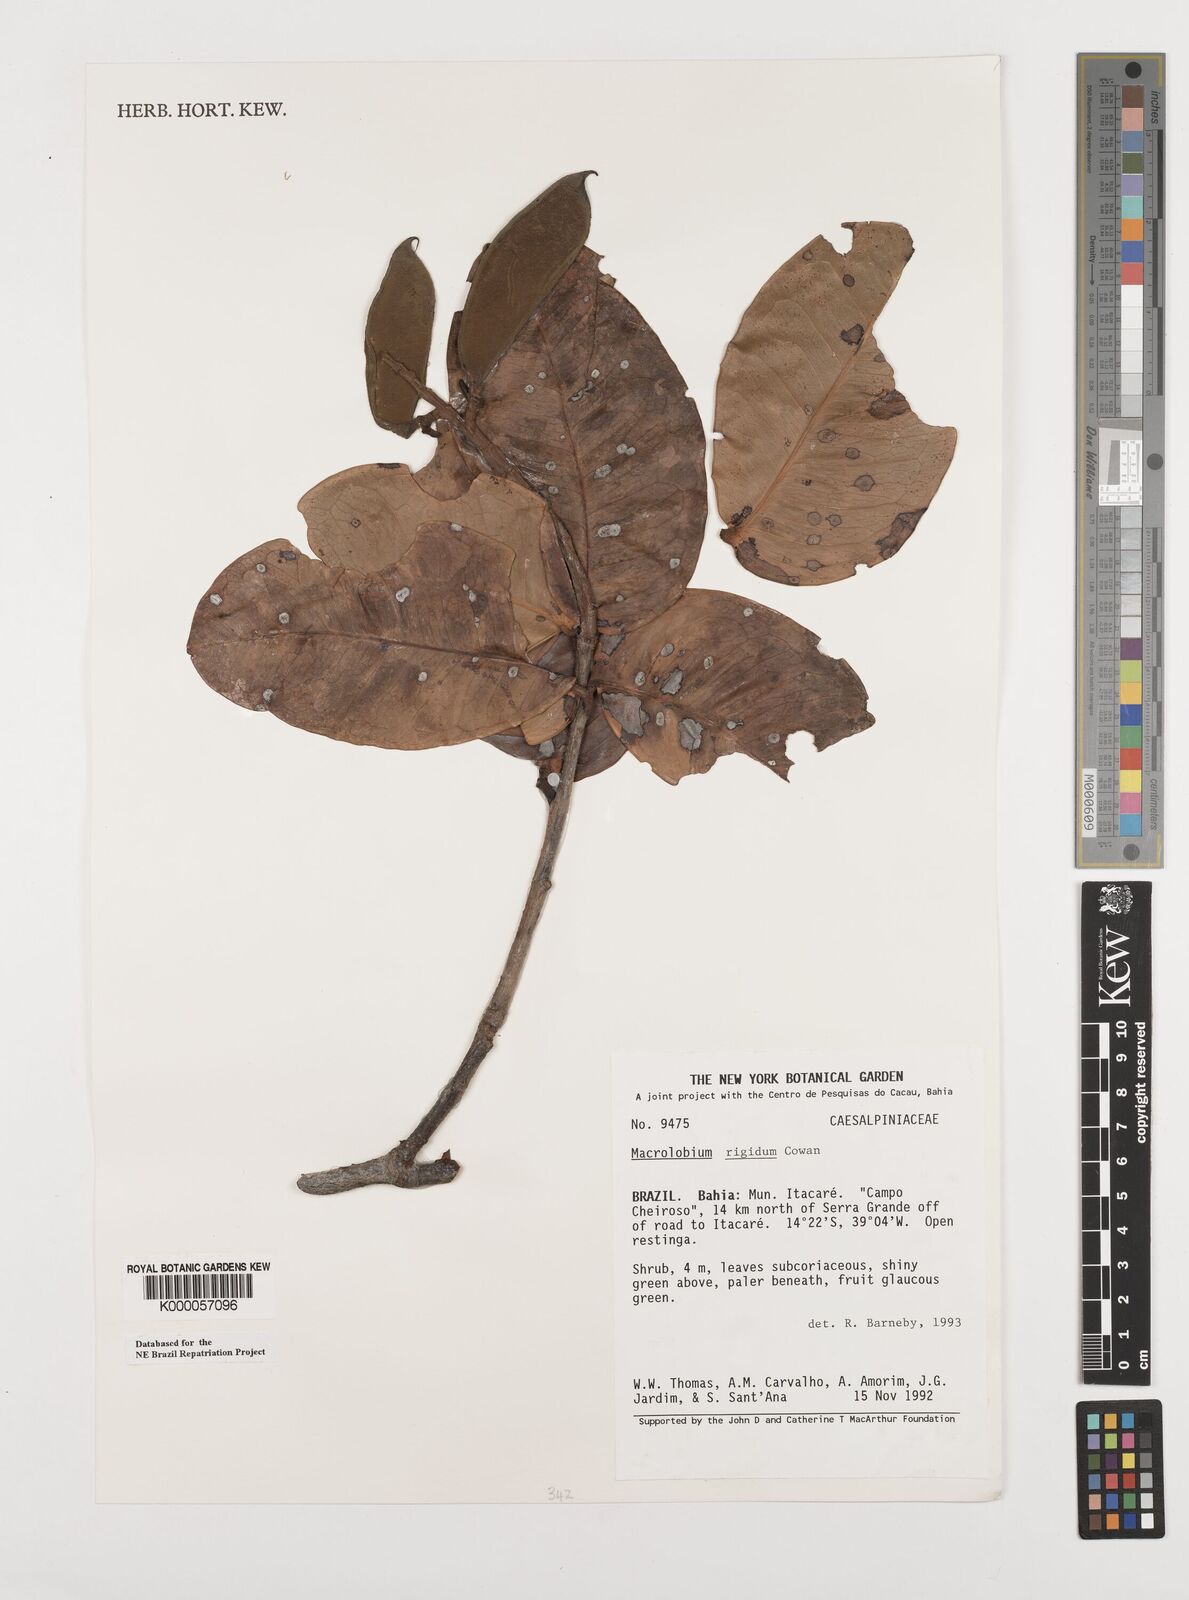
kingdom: Plantae
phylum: Tracheophyta
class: Magnoliopsida
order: Fabales
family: Fabaceae
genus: Macrolobium
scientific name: Macrolobium rigidum
